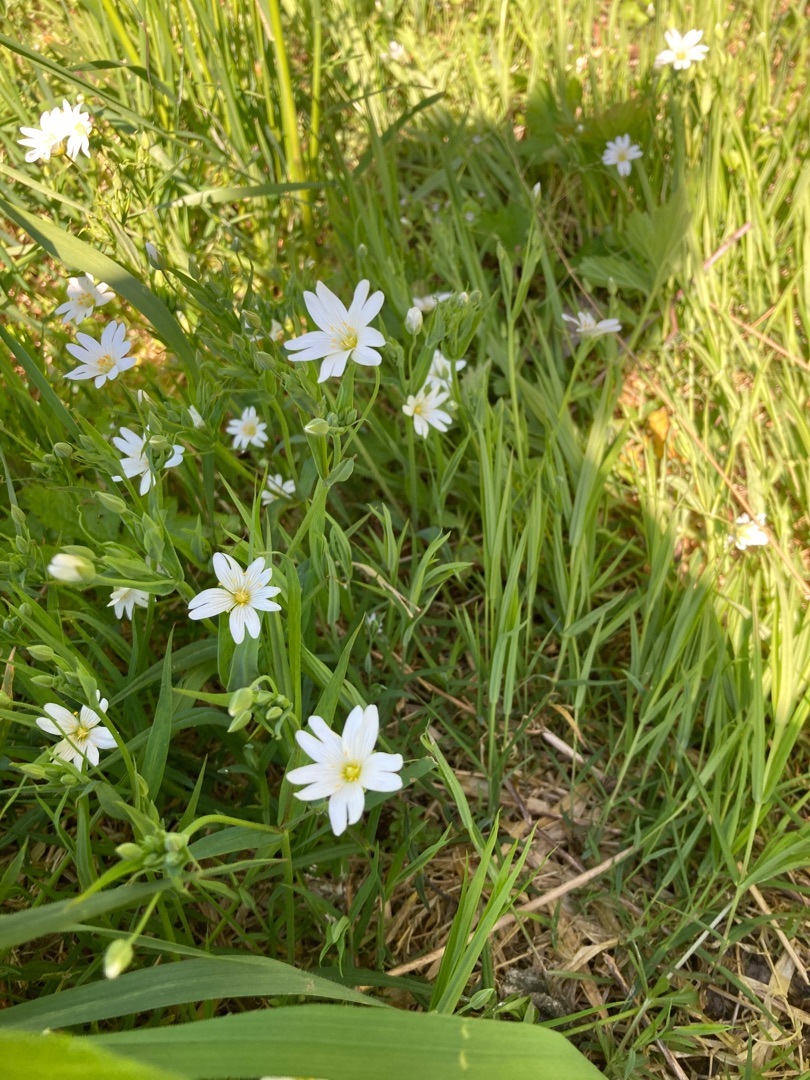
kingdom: Plantae
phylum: Tracheophyta
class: Magnoliopsida
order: Caryophyllales
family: Caryophyllaceae
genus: Rabelera
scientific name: Rabelera holostea
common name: Stor fladstjerne
